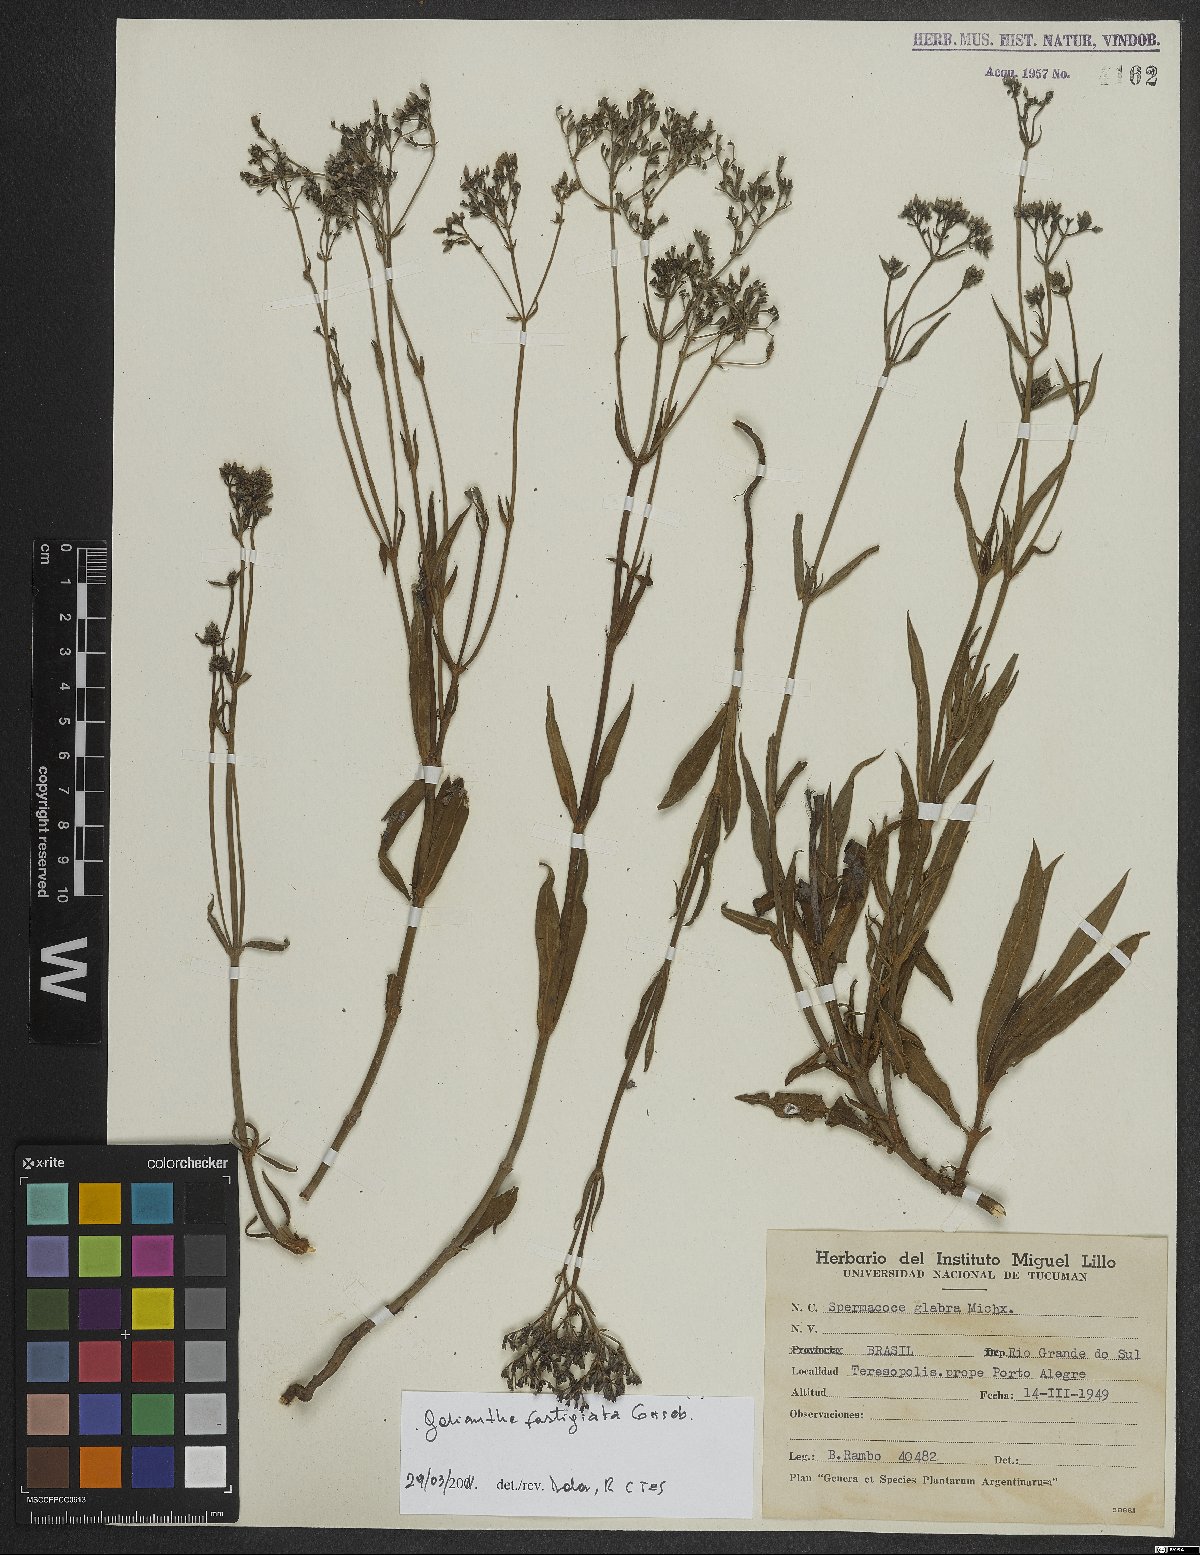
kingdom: Plantae
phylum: Tracheophyta
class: Magnoliopsida
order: Gentianales
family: Rubiaceae
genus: Galianthe
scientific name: Galianthe fastigiata
